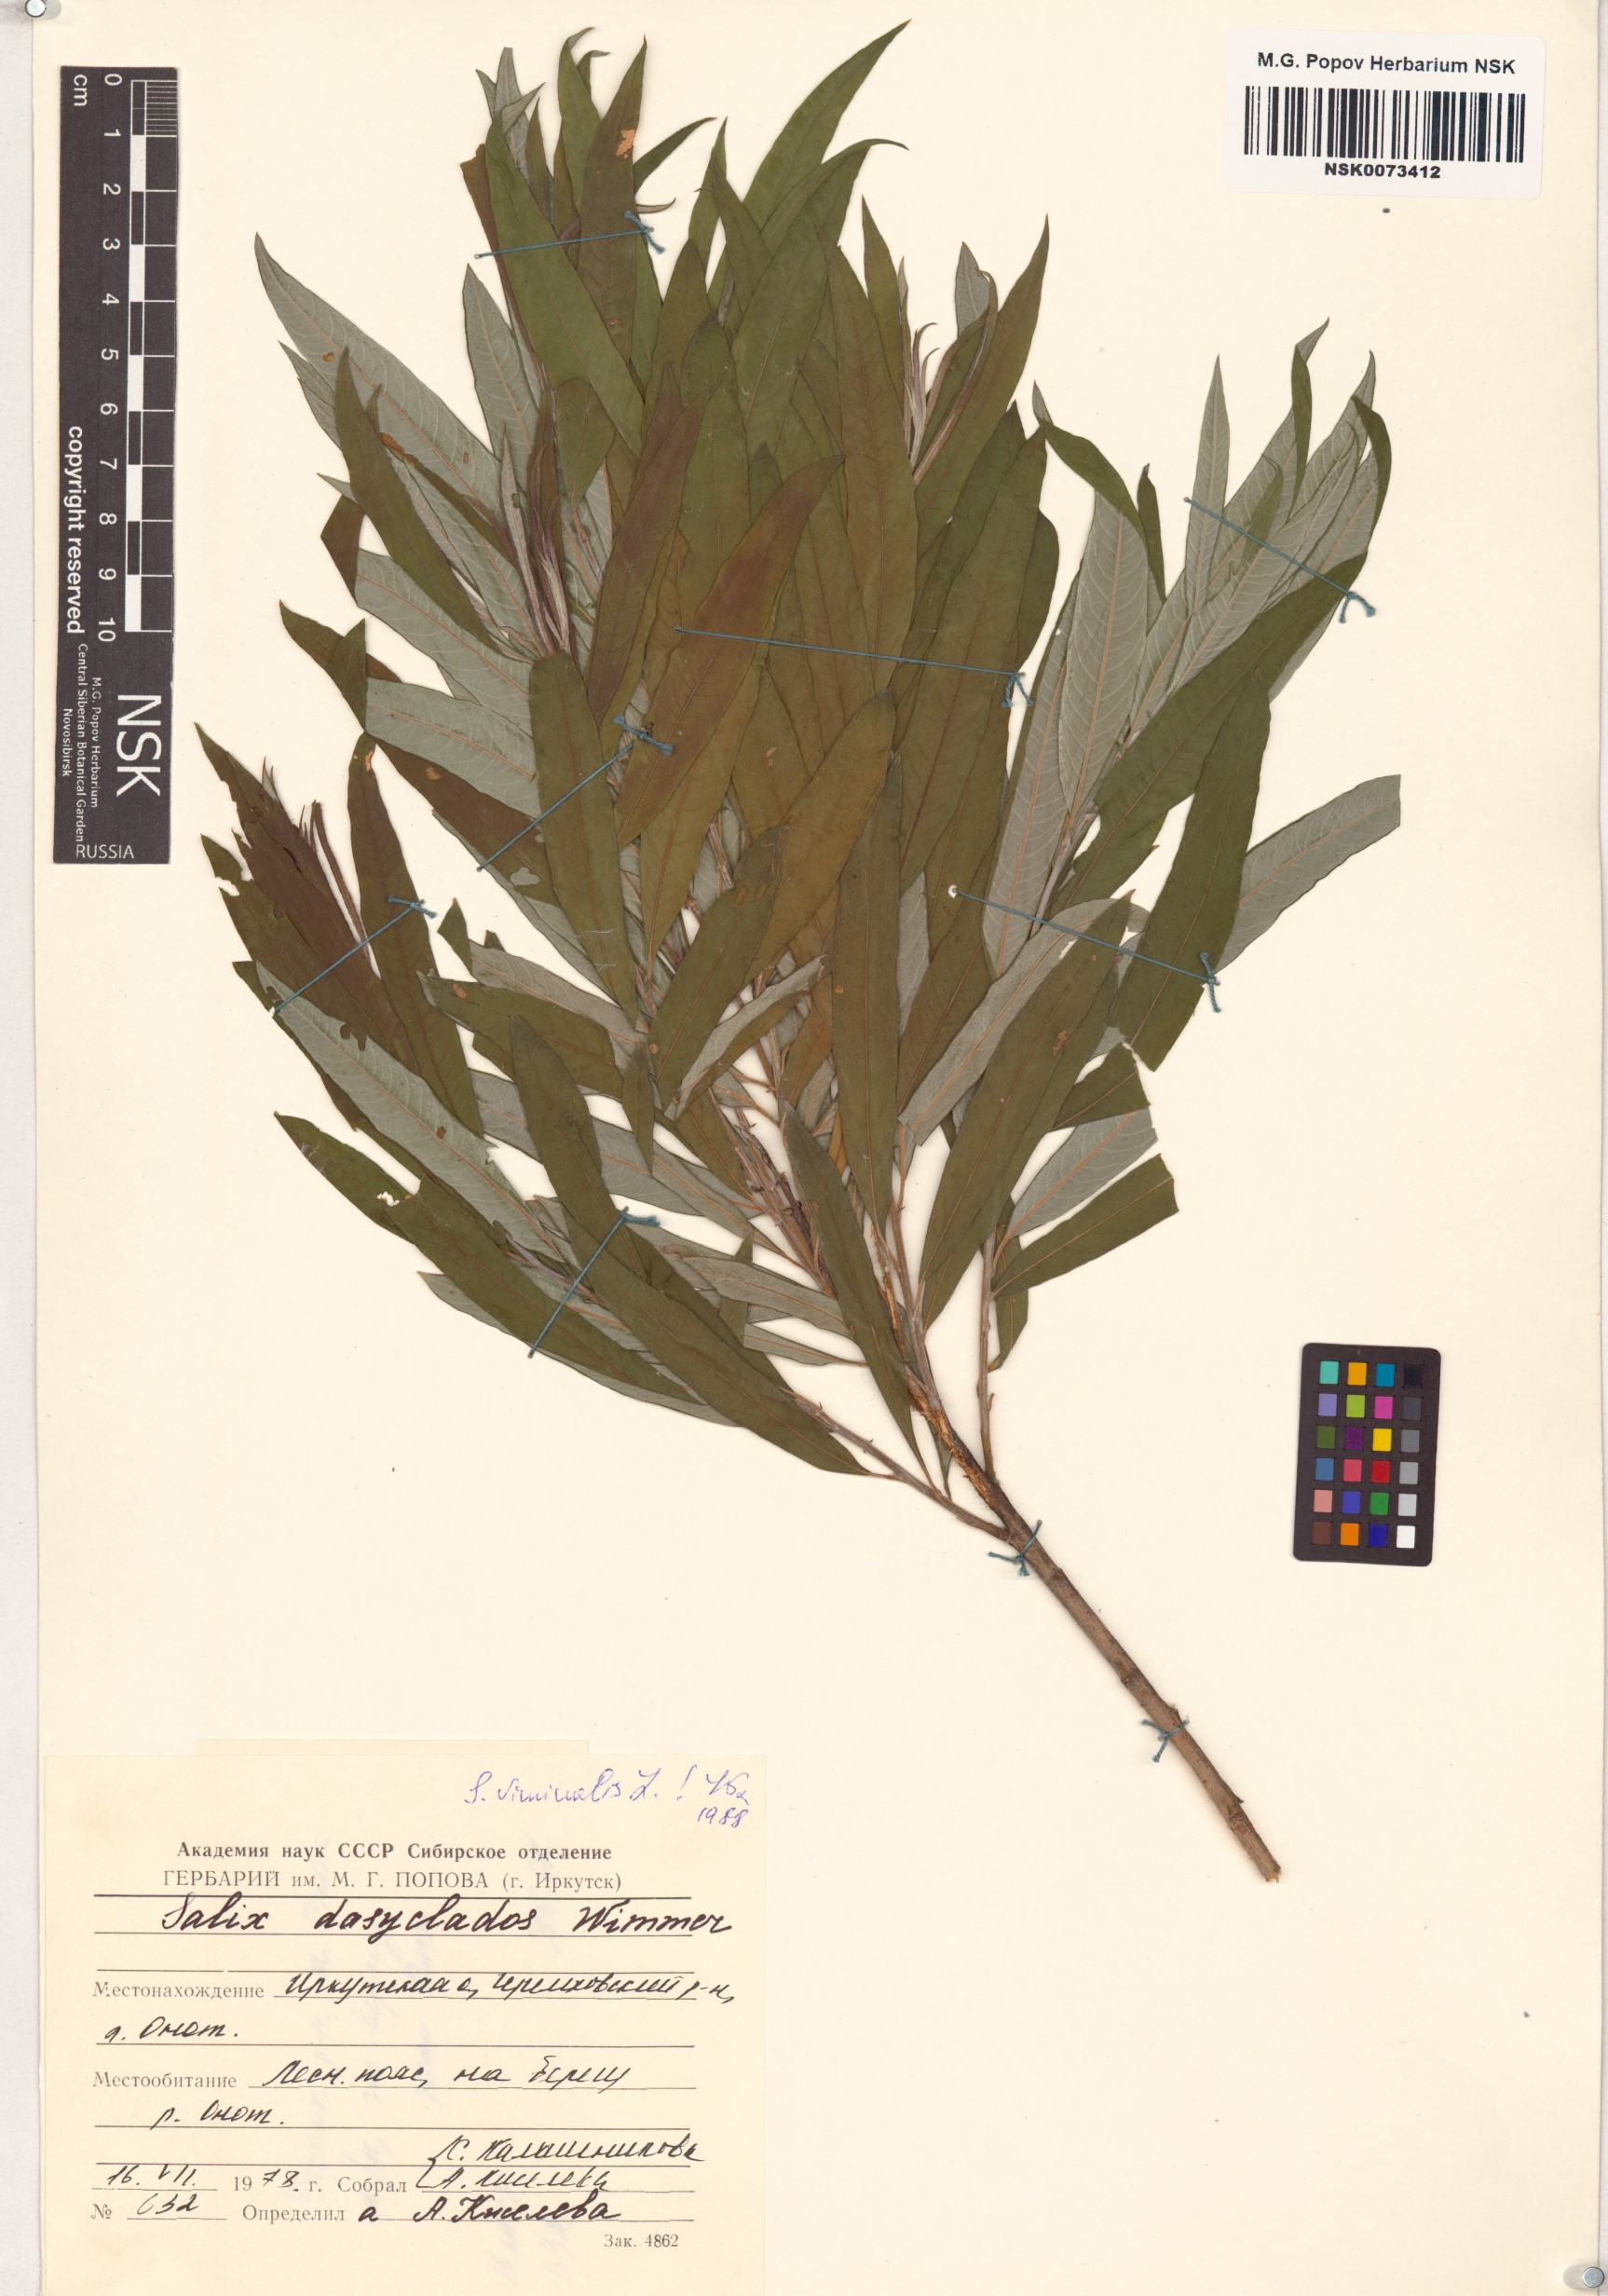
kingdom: Plantae
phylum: Tracheophyta
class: Magnoliopsida
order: Malpighiales
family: Salicaceae
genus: Salix
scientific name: Salix viminalis
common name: Osier
